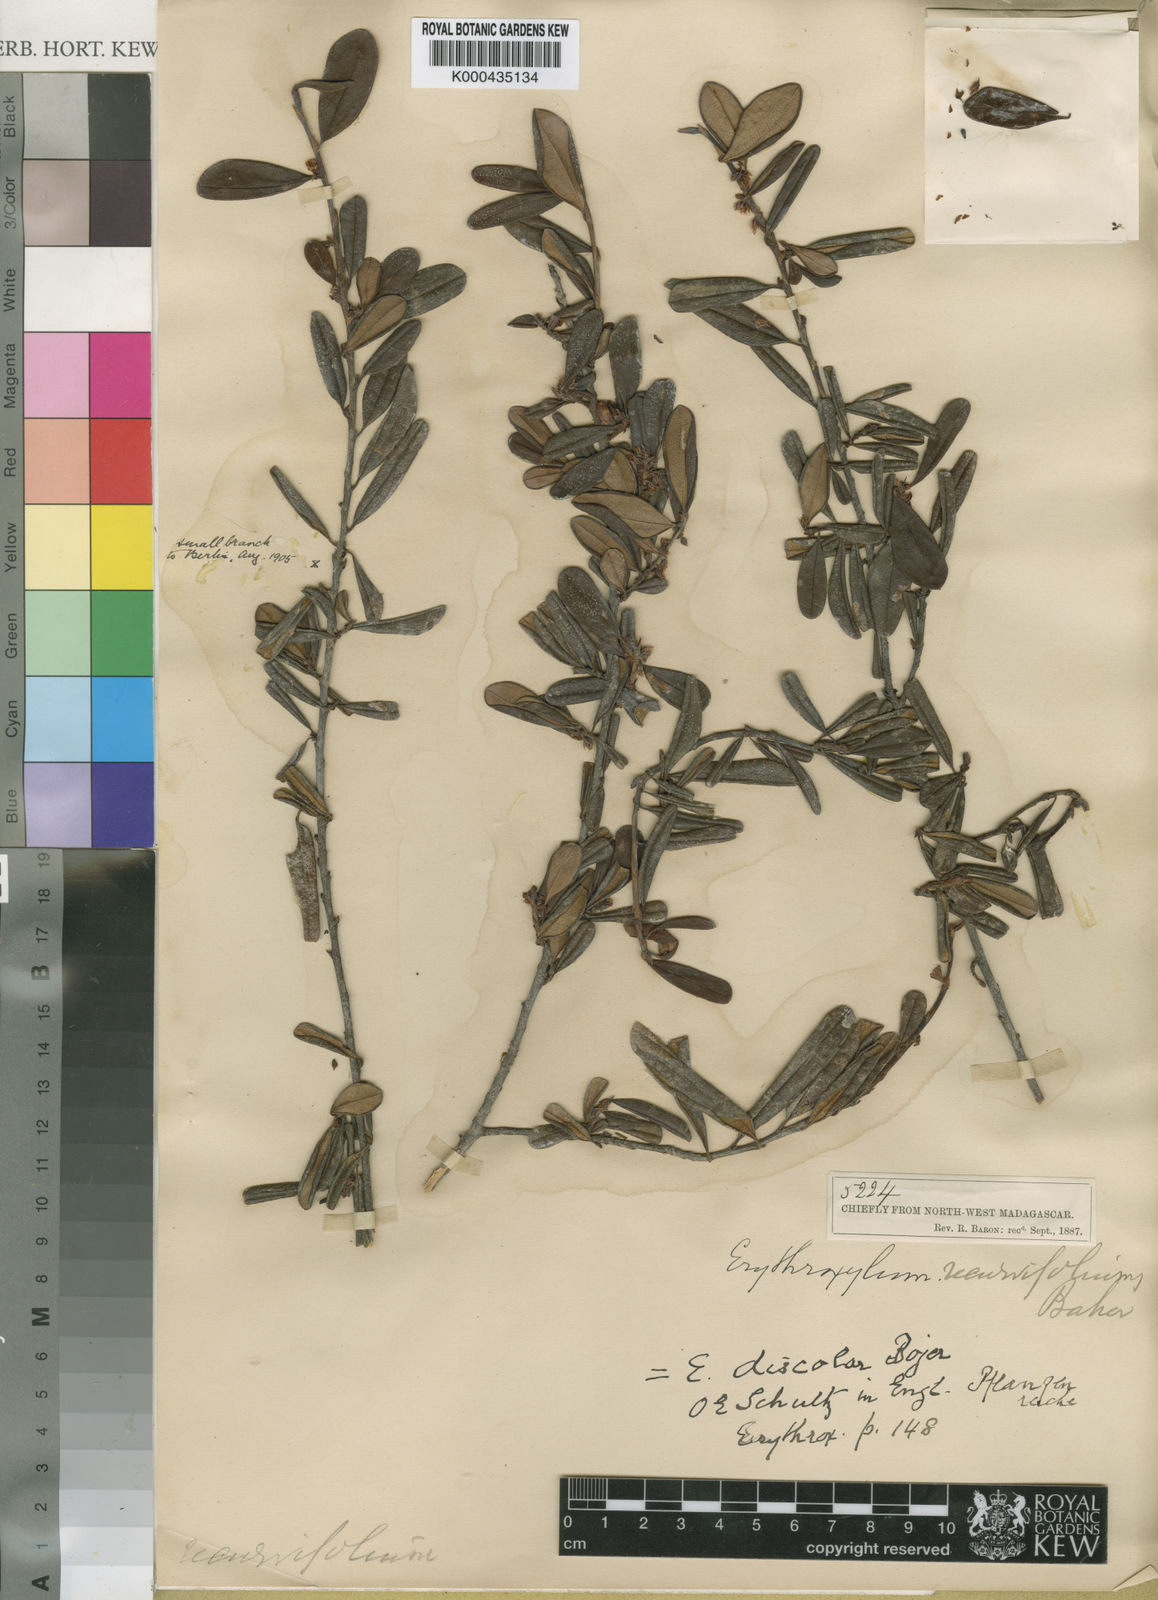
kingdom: Plantae
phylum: Tracheophyta
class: Magnoliopsida
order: Malpighiales
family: Erythroxylaceae
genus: Erythroxylum
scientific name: Erythroxylum discolor
